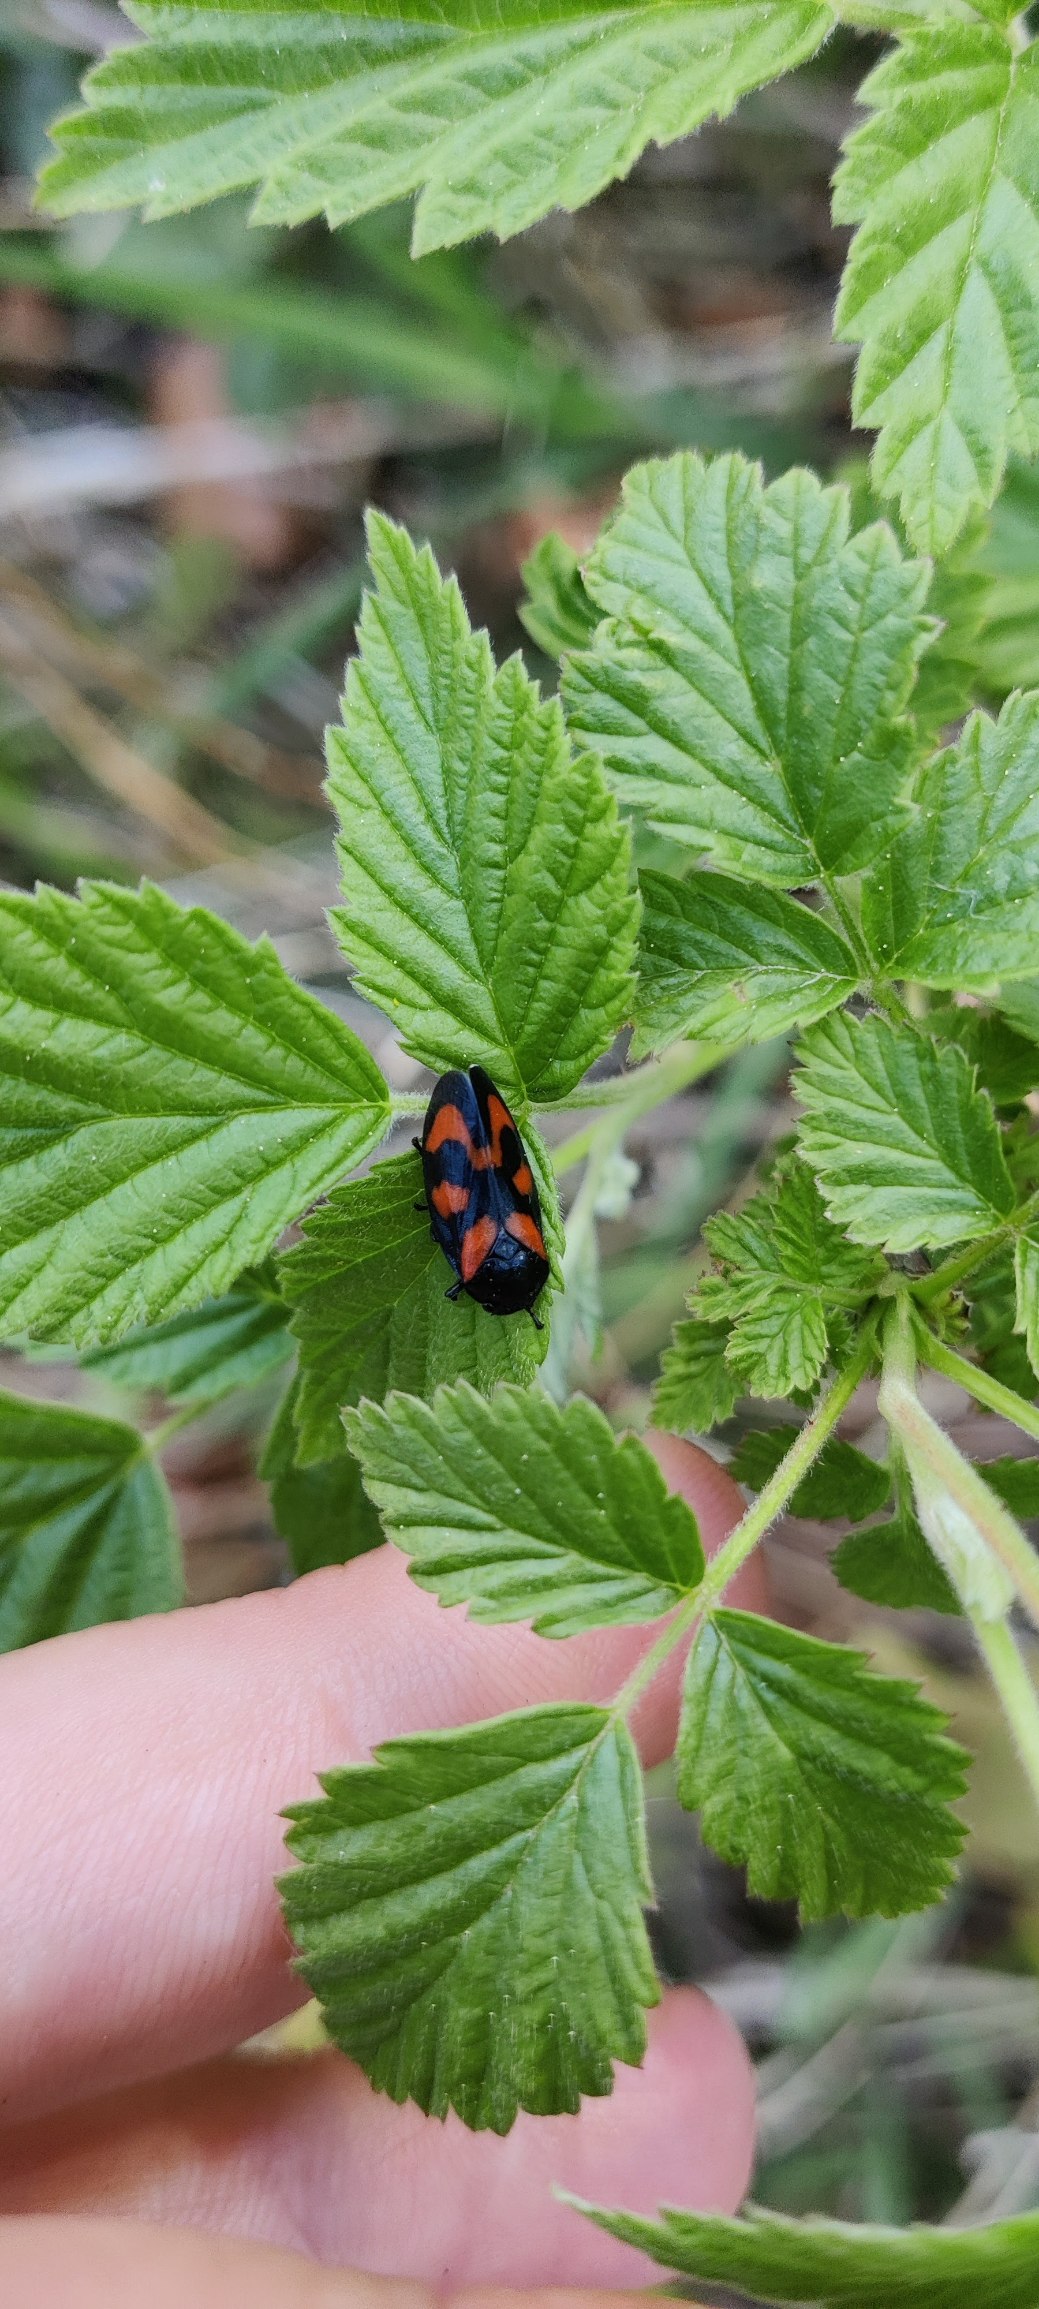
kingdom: Animalia
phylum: Arthropoda
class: Insecta
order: Hemiptera
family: Cercopidae
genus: Cercopis
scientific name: Cercopis vulnerata
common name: Blodcikade
